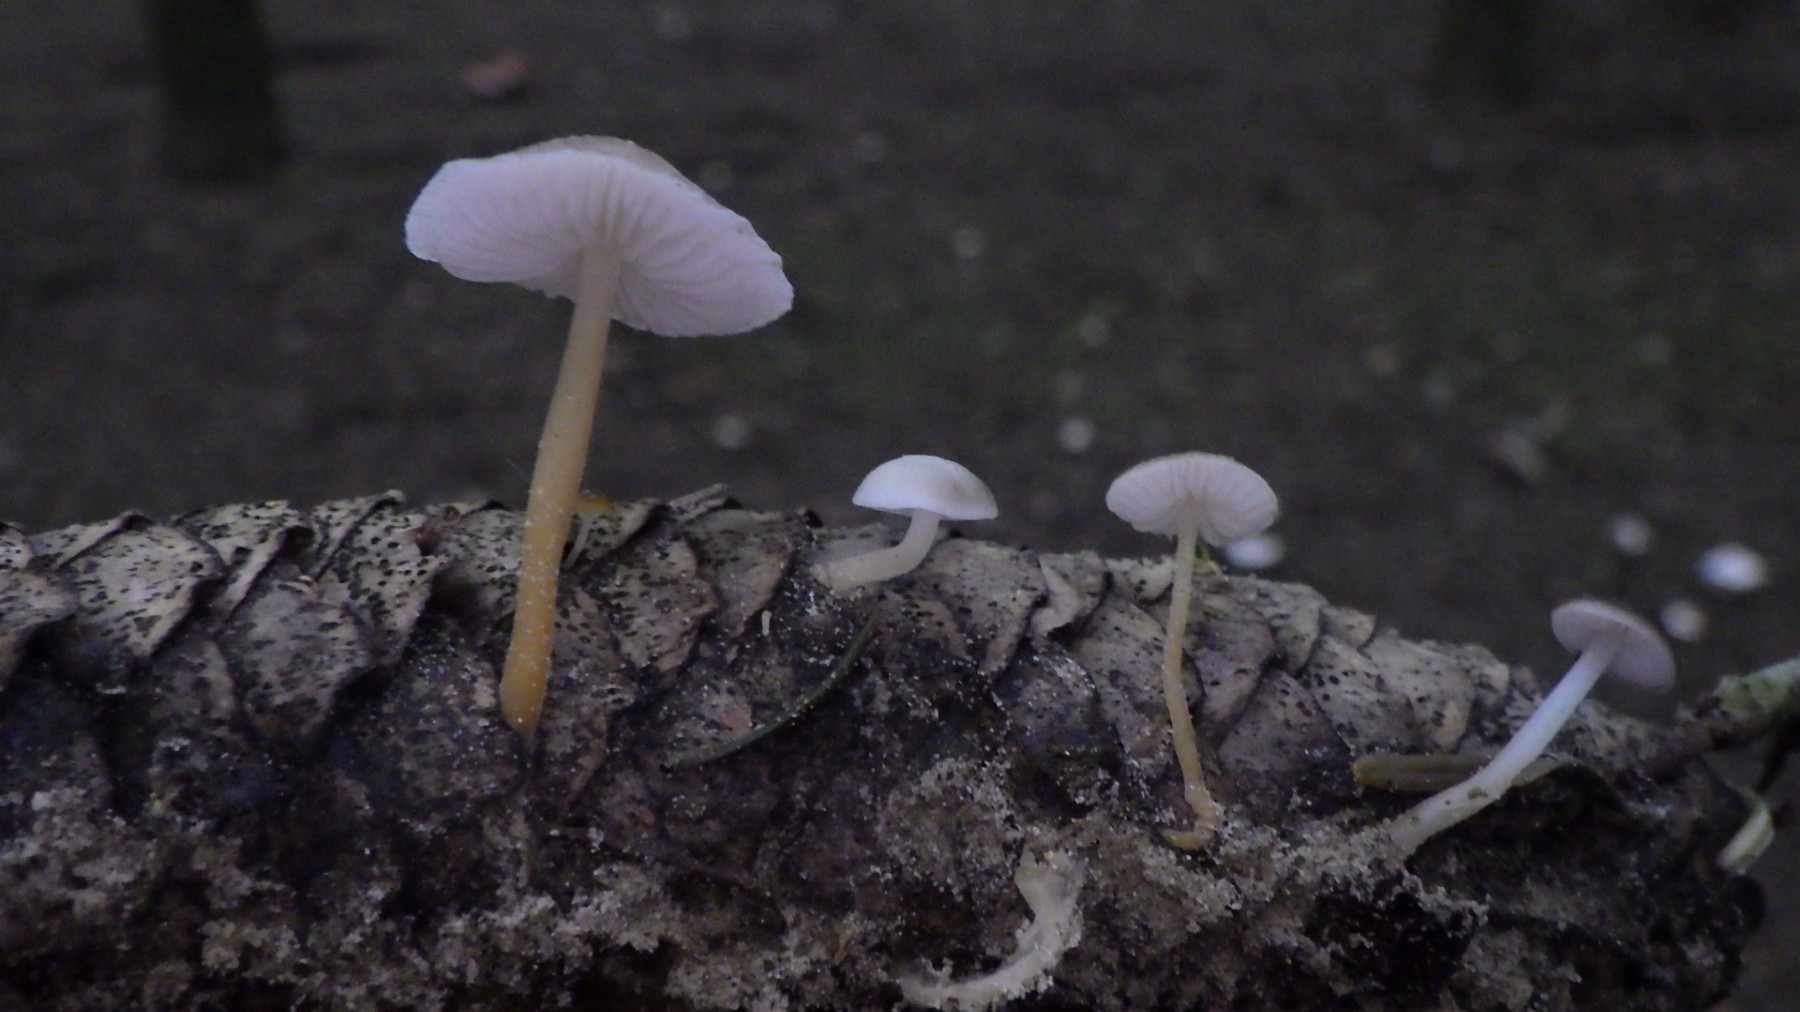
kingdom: Fungi
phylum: Basidiomycota
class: Agaricomycetes
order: Agaricales
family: Physalacriaceae
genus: Strobilurus
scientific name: Strobilurus esculentus
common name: gran-koglehat
